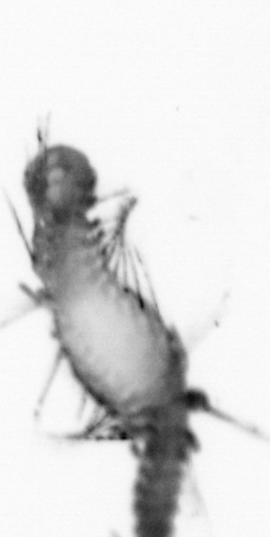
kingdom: Animalia
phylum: Annelida
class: Polychaeta
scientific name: Polychaeta
